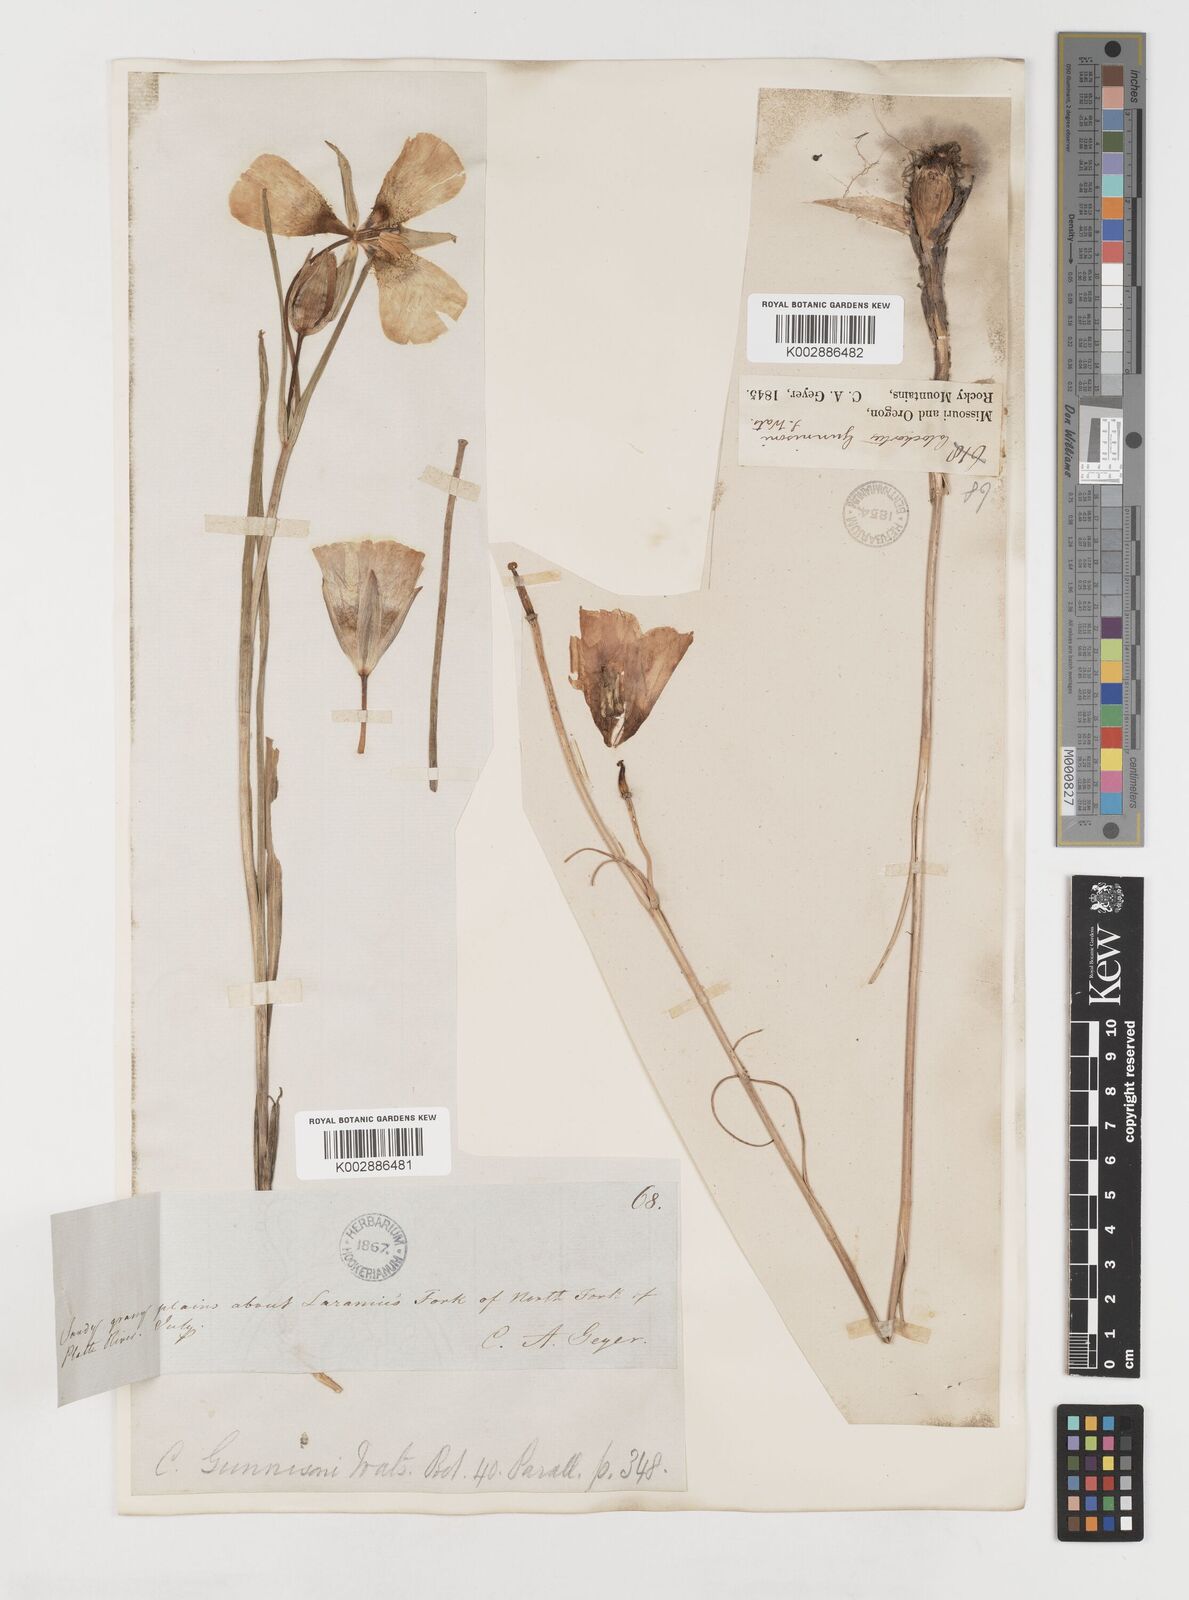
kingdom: Plantae
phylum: Tracheophyta
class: Liliopsida
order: Liliales
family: Liliaceae
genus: Calochortus
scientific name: Calochortus gunnisonii
